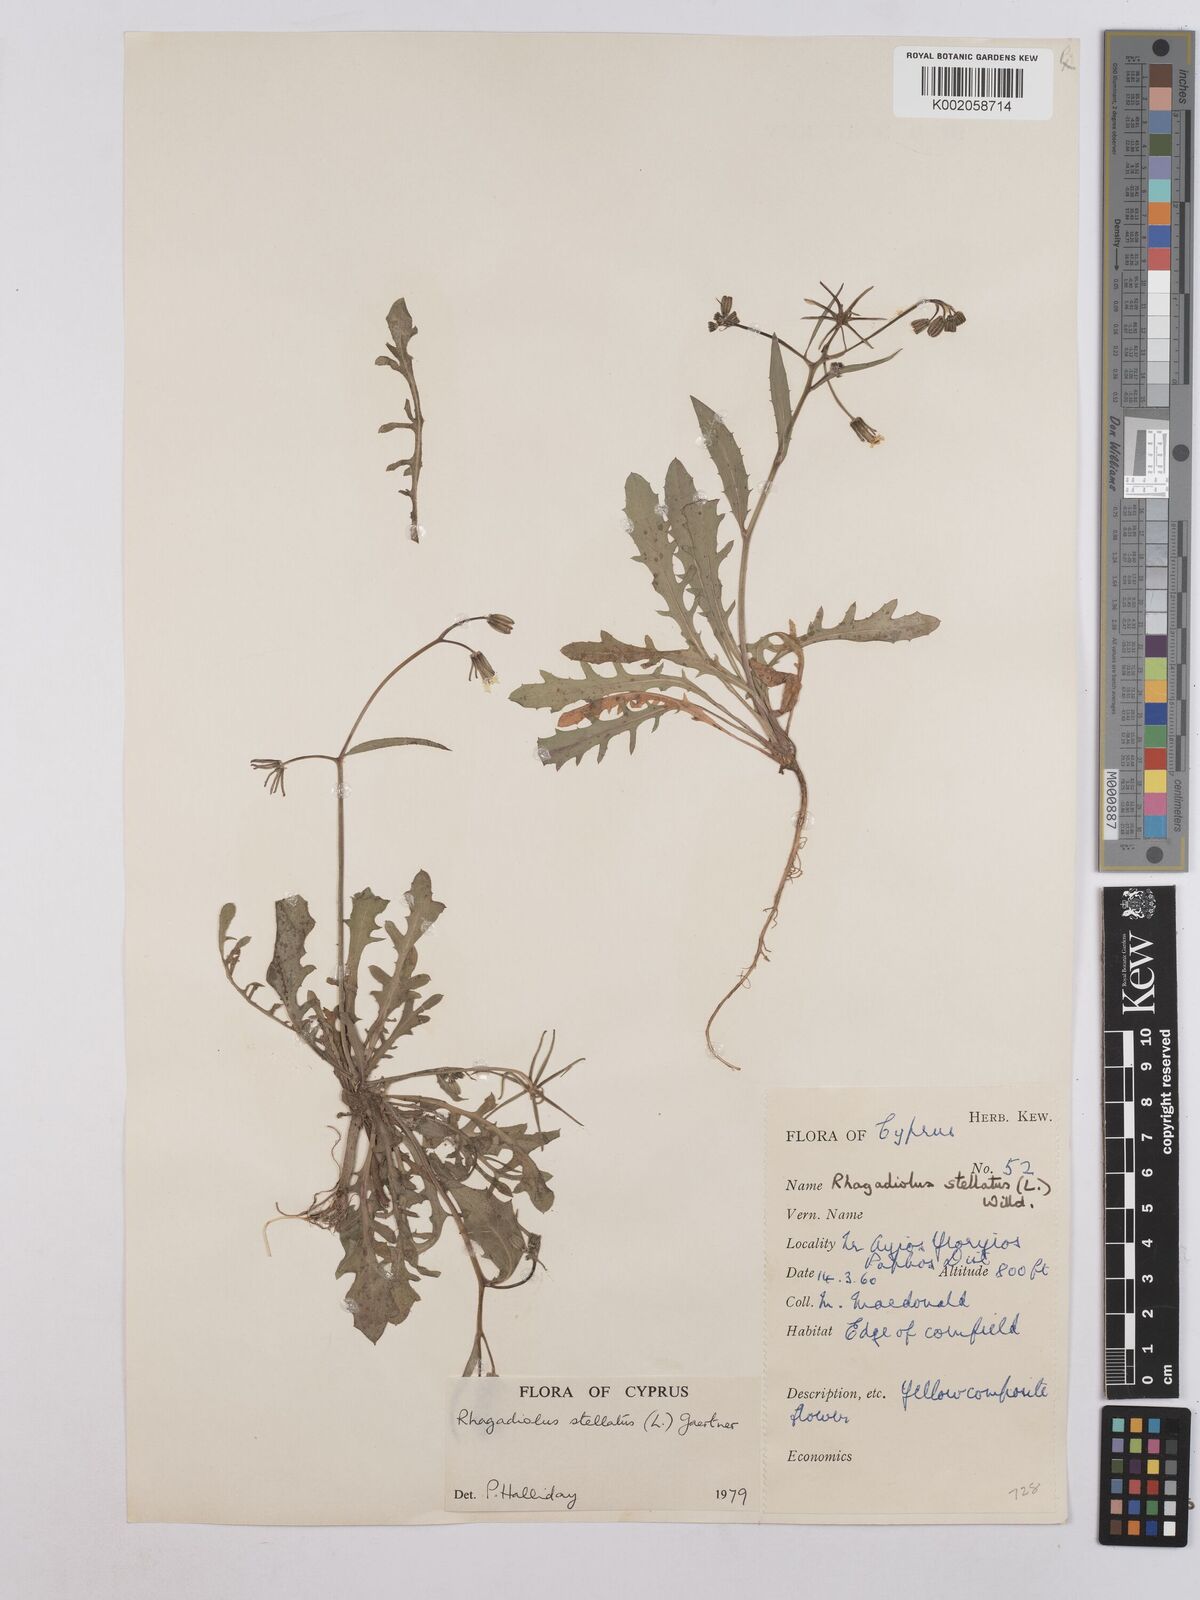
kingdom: Plantae
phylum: Tracheophyta
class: Magnoliopsida
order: Asterales
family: Asteraceae
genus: Rhagadiolus
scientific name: Rhagadiolus stellatus
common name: Star hawkbit
